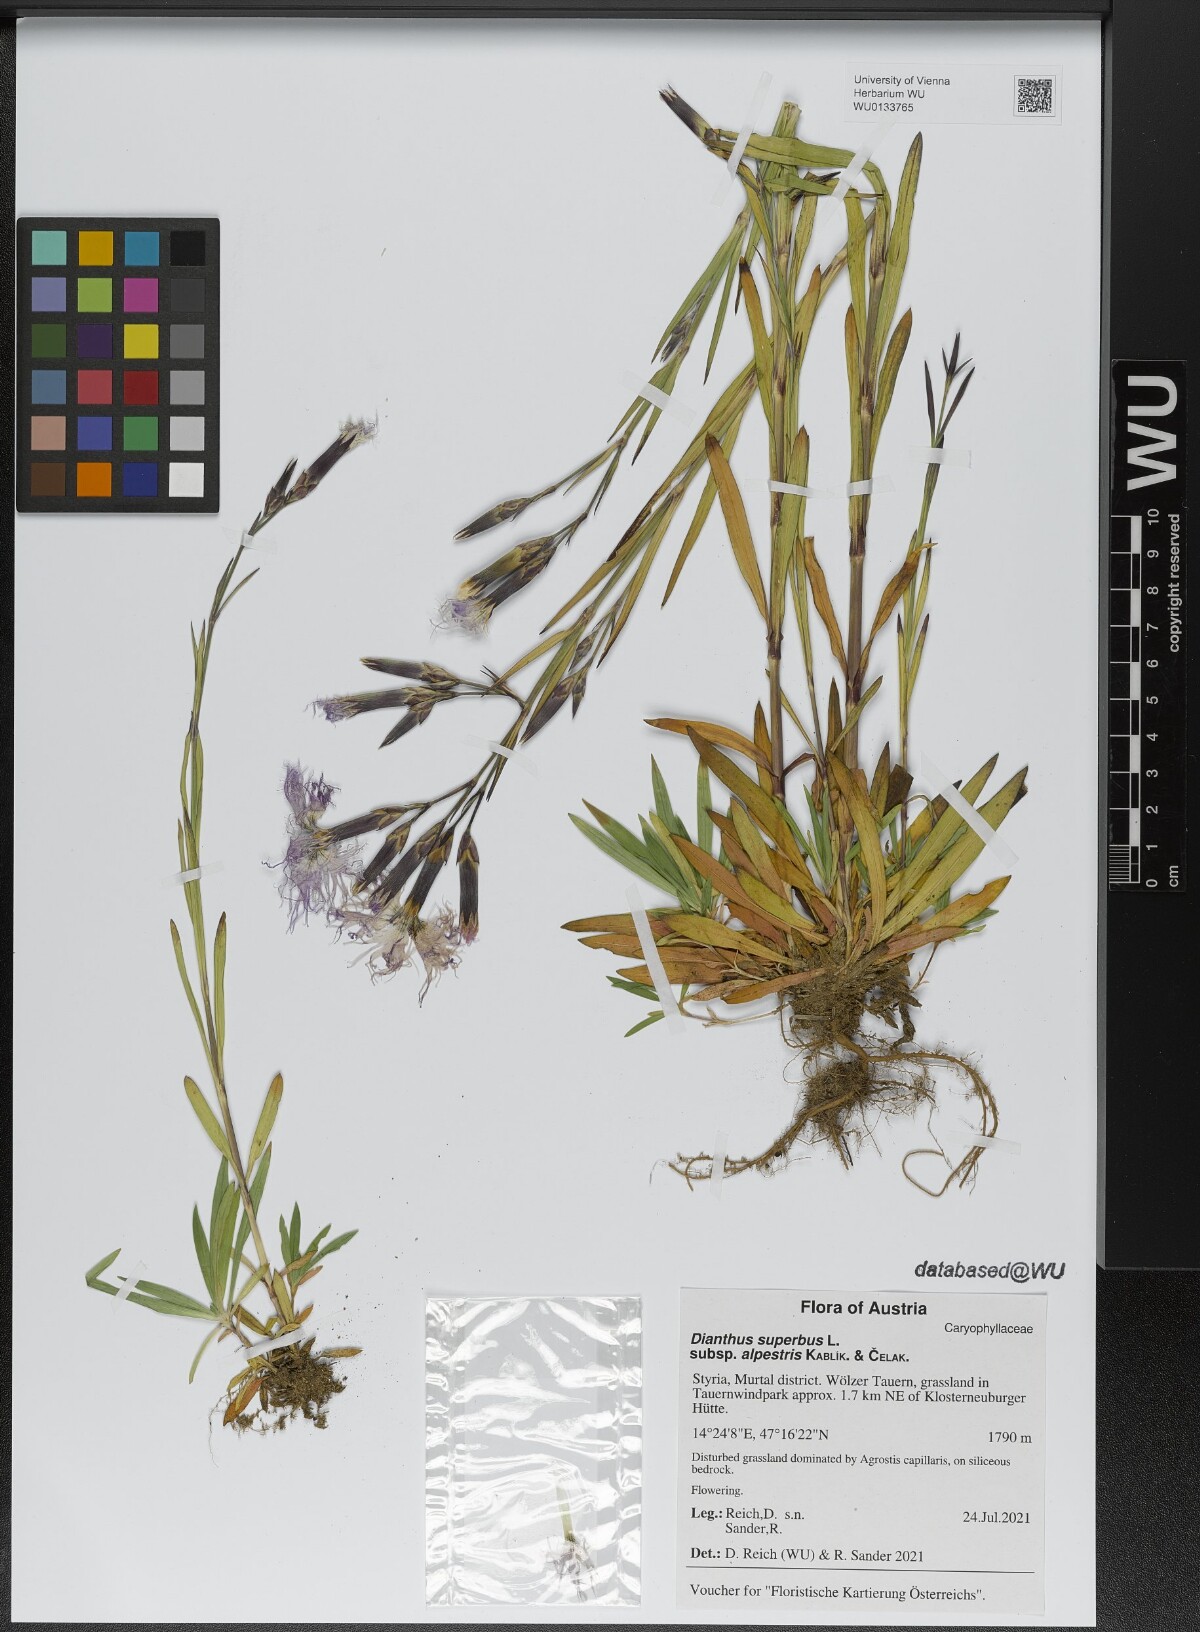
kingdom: Plantae
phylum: Tracheophyta
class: Magnoliopsida
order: Caryophyllales
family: Caryophyllaceae
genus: Dianthus
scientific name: Dianthus superbus
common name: Fringed pink
